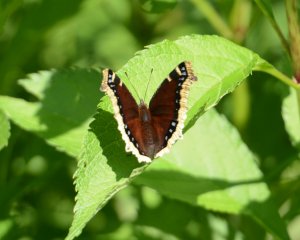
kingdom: Animalia
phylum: Arthropoda
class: Insecta
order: Lepidoptera
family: Nymphalidae
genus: Nymphalis
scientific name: Nymphalis antiopa
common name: Mourning Cloak
